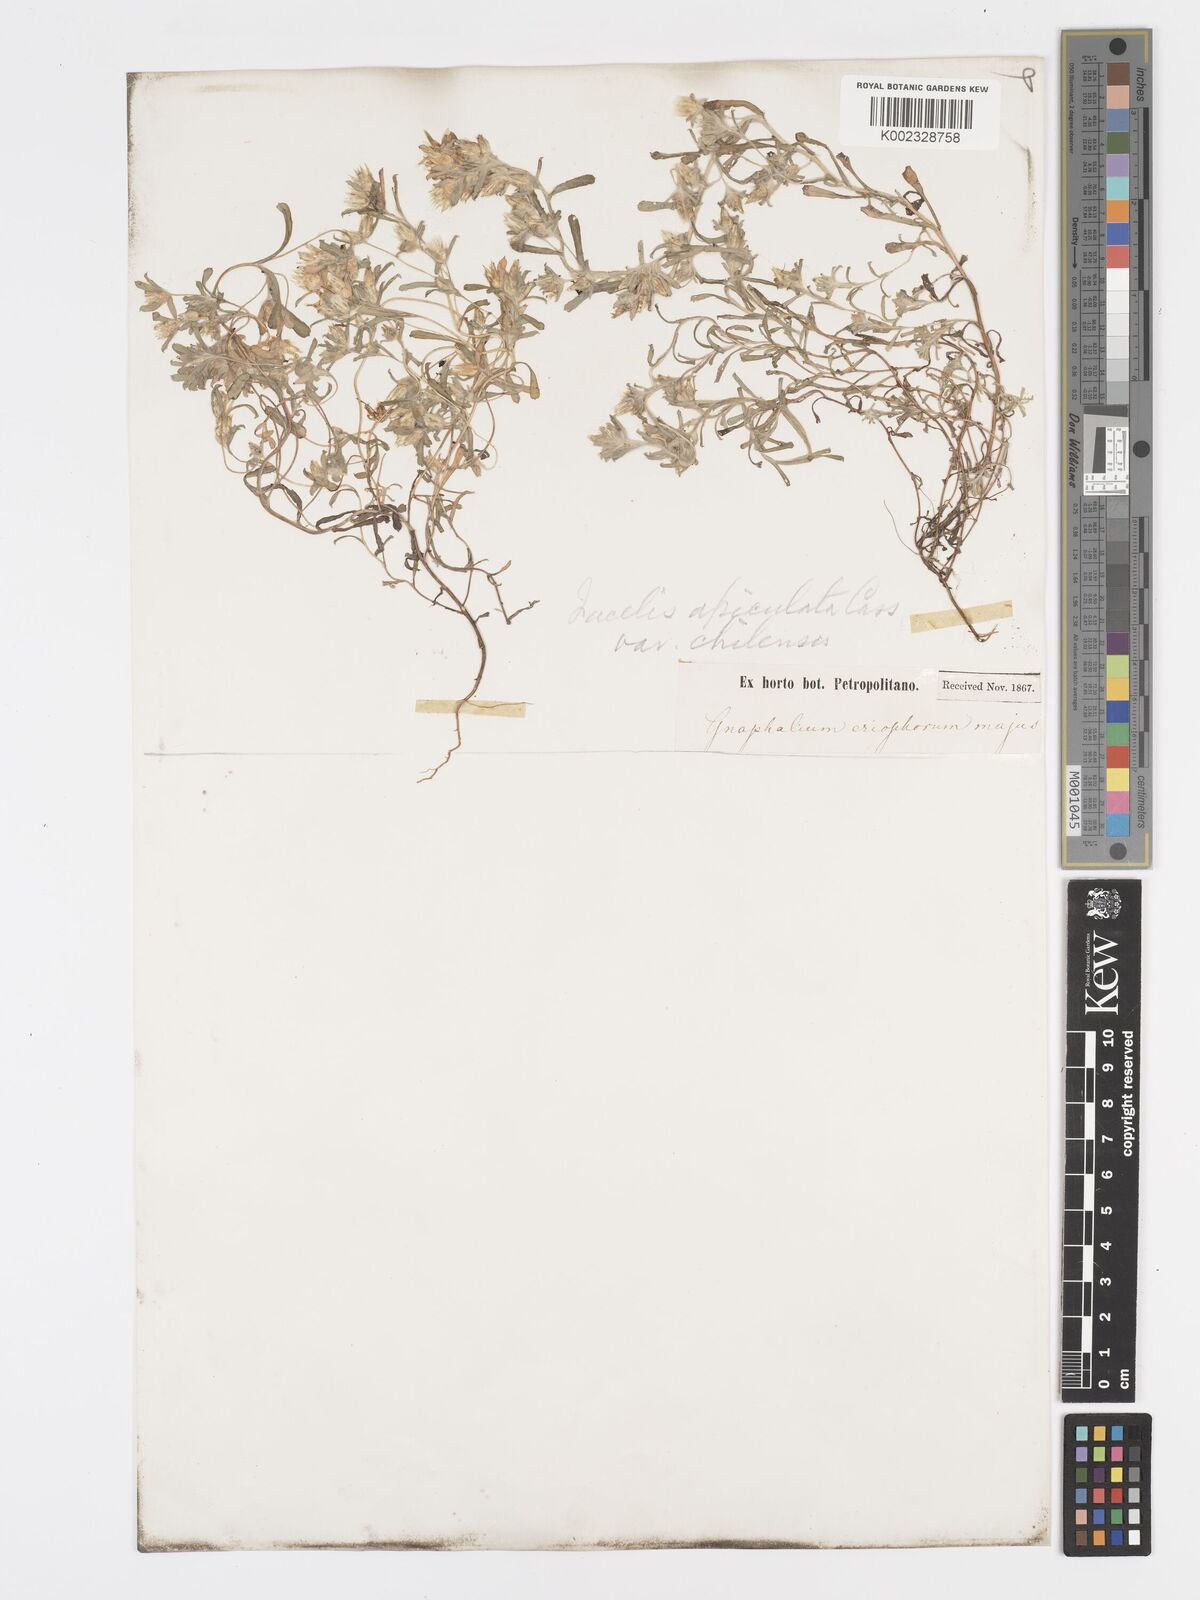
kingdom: Plantae
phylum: Tracheophyta
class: Magnoliopsida
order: Asterales
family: Asteraceae
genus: Facelis
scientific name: Facelis retusa
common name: Annual trampweed
